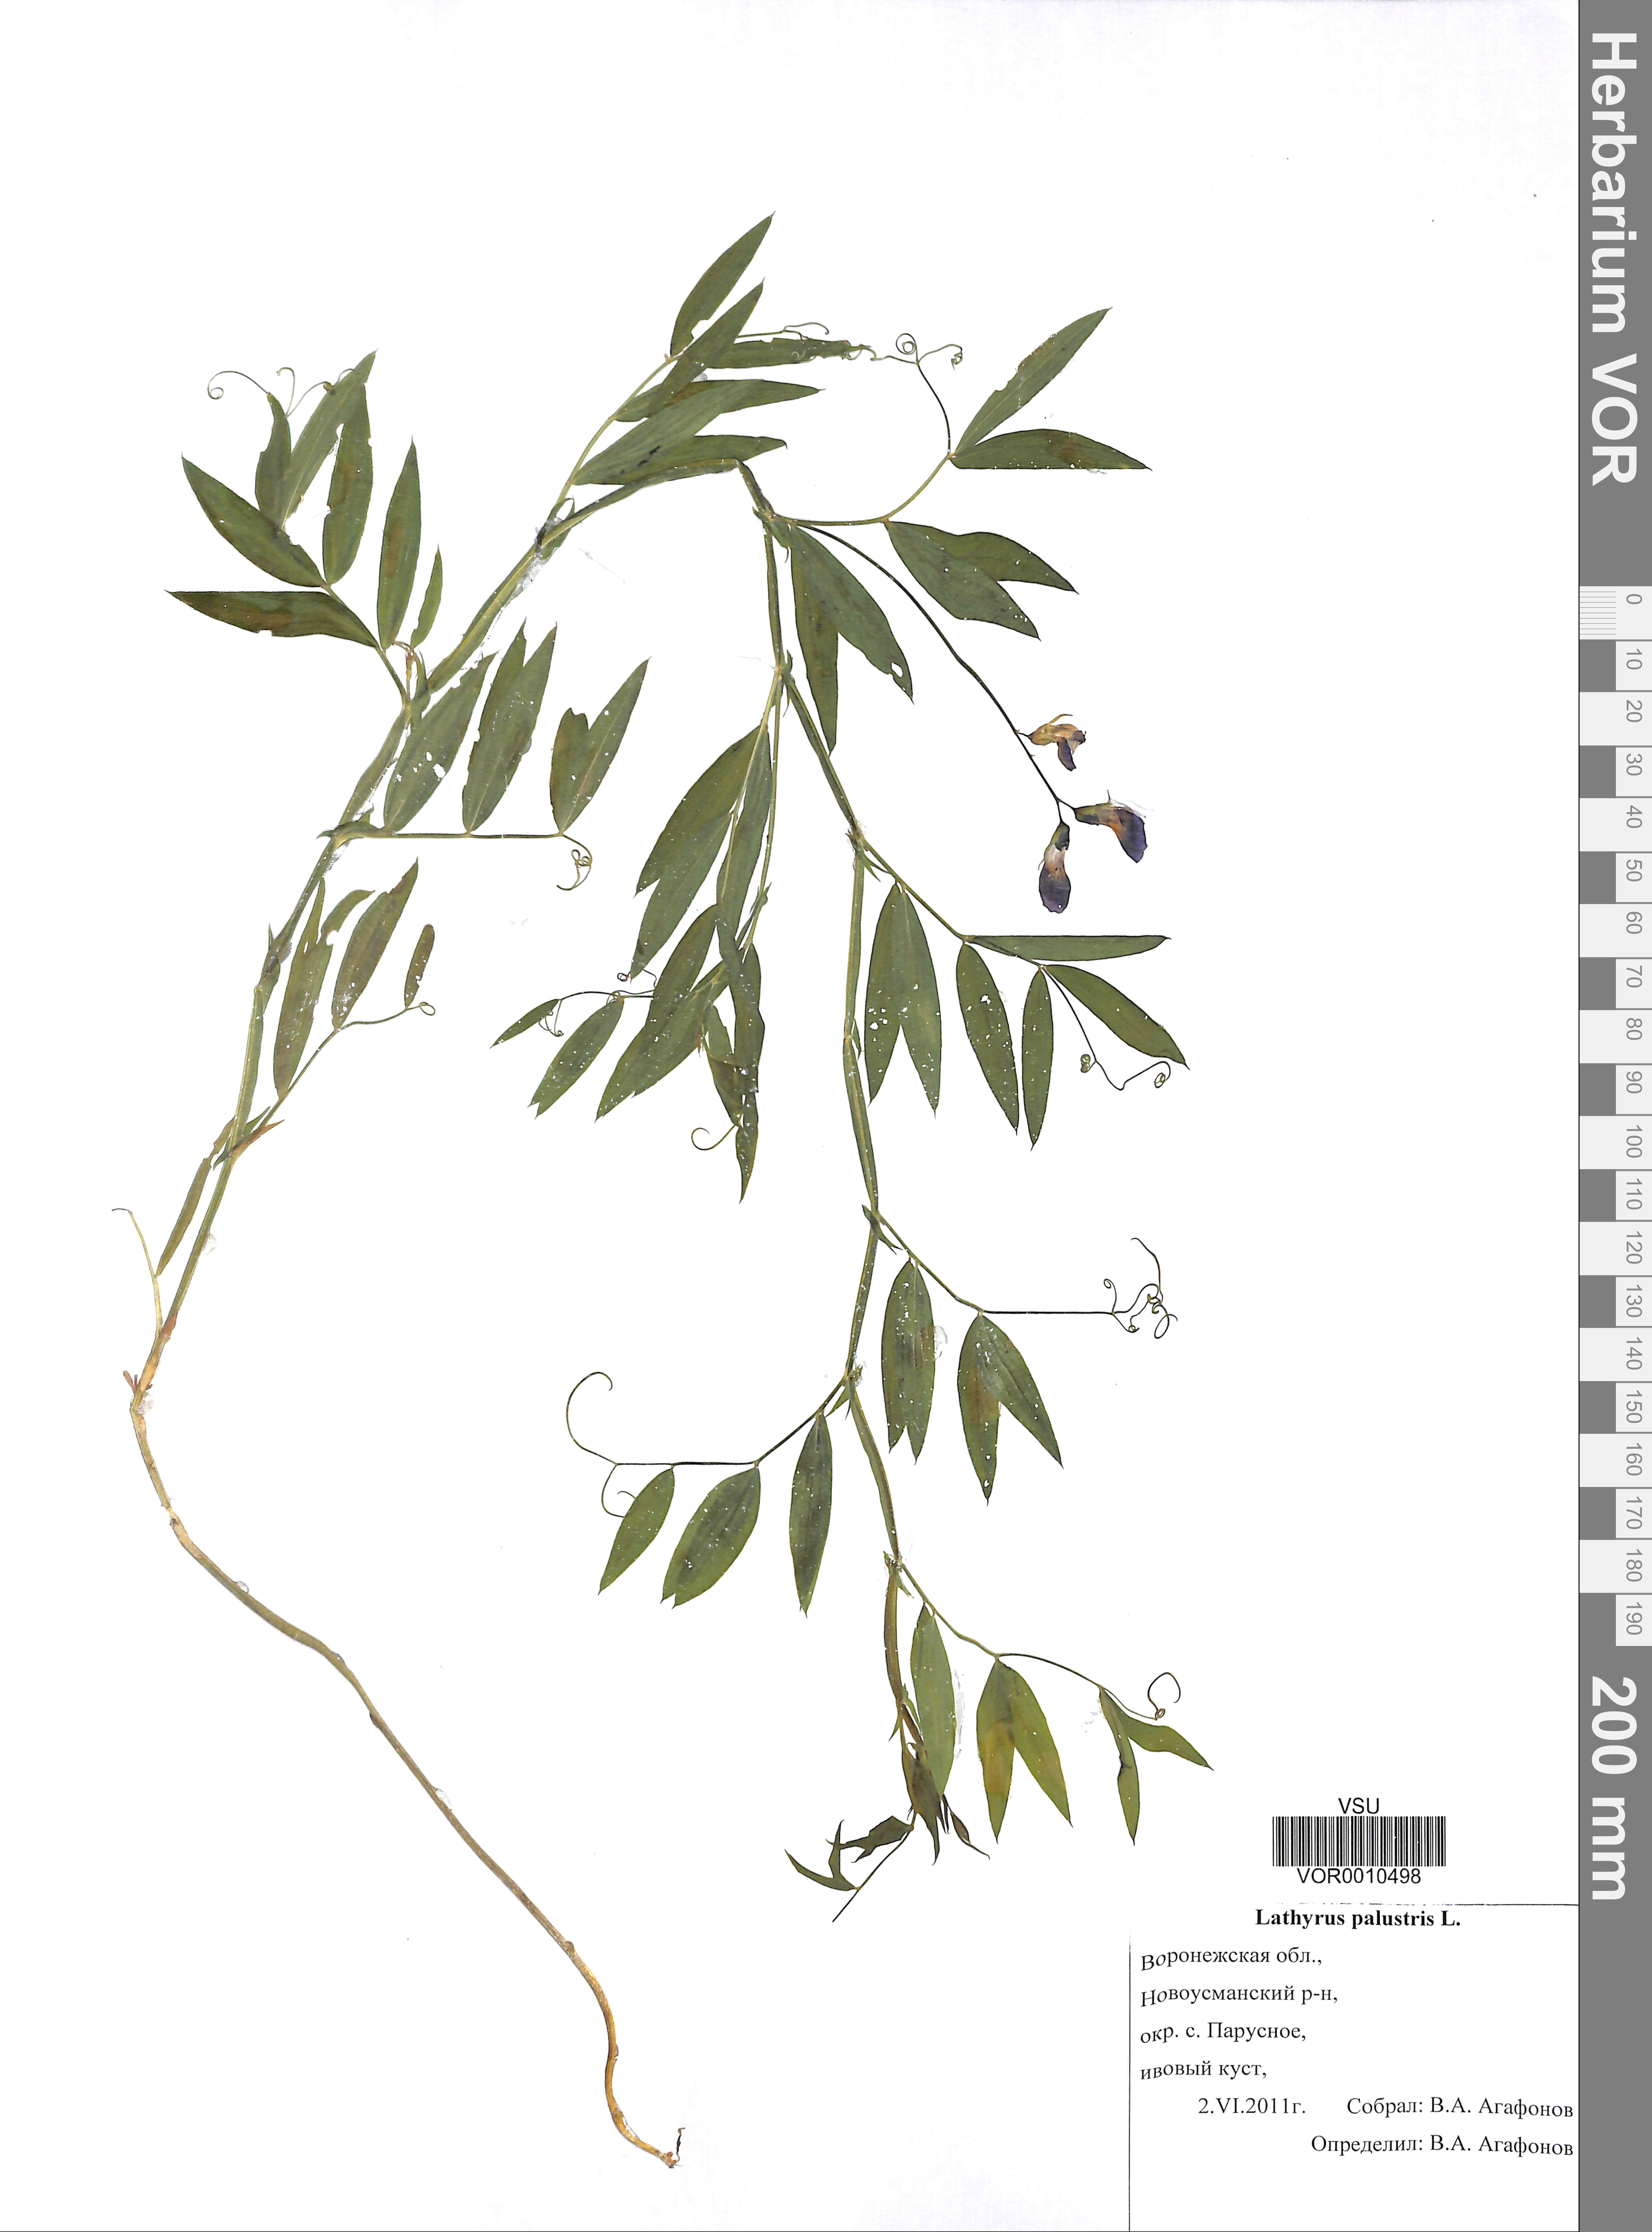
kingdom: Plantae
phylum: Tracheophyta
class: Magnoliopsida
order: Fabales
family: Fabaceae
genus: Lathyrus
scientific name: Lathyrus palustris
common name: Marsh pea
